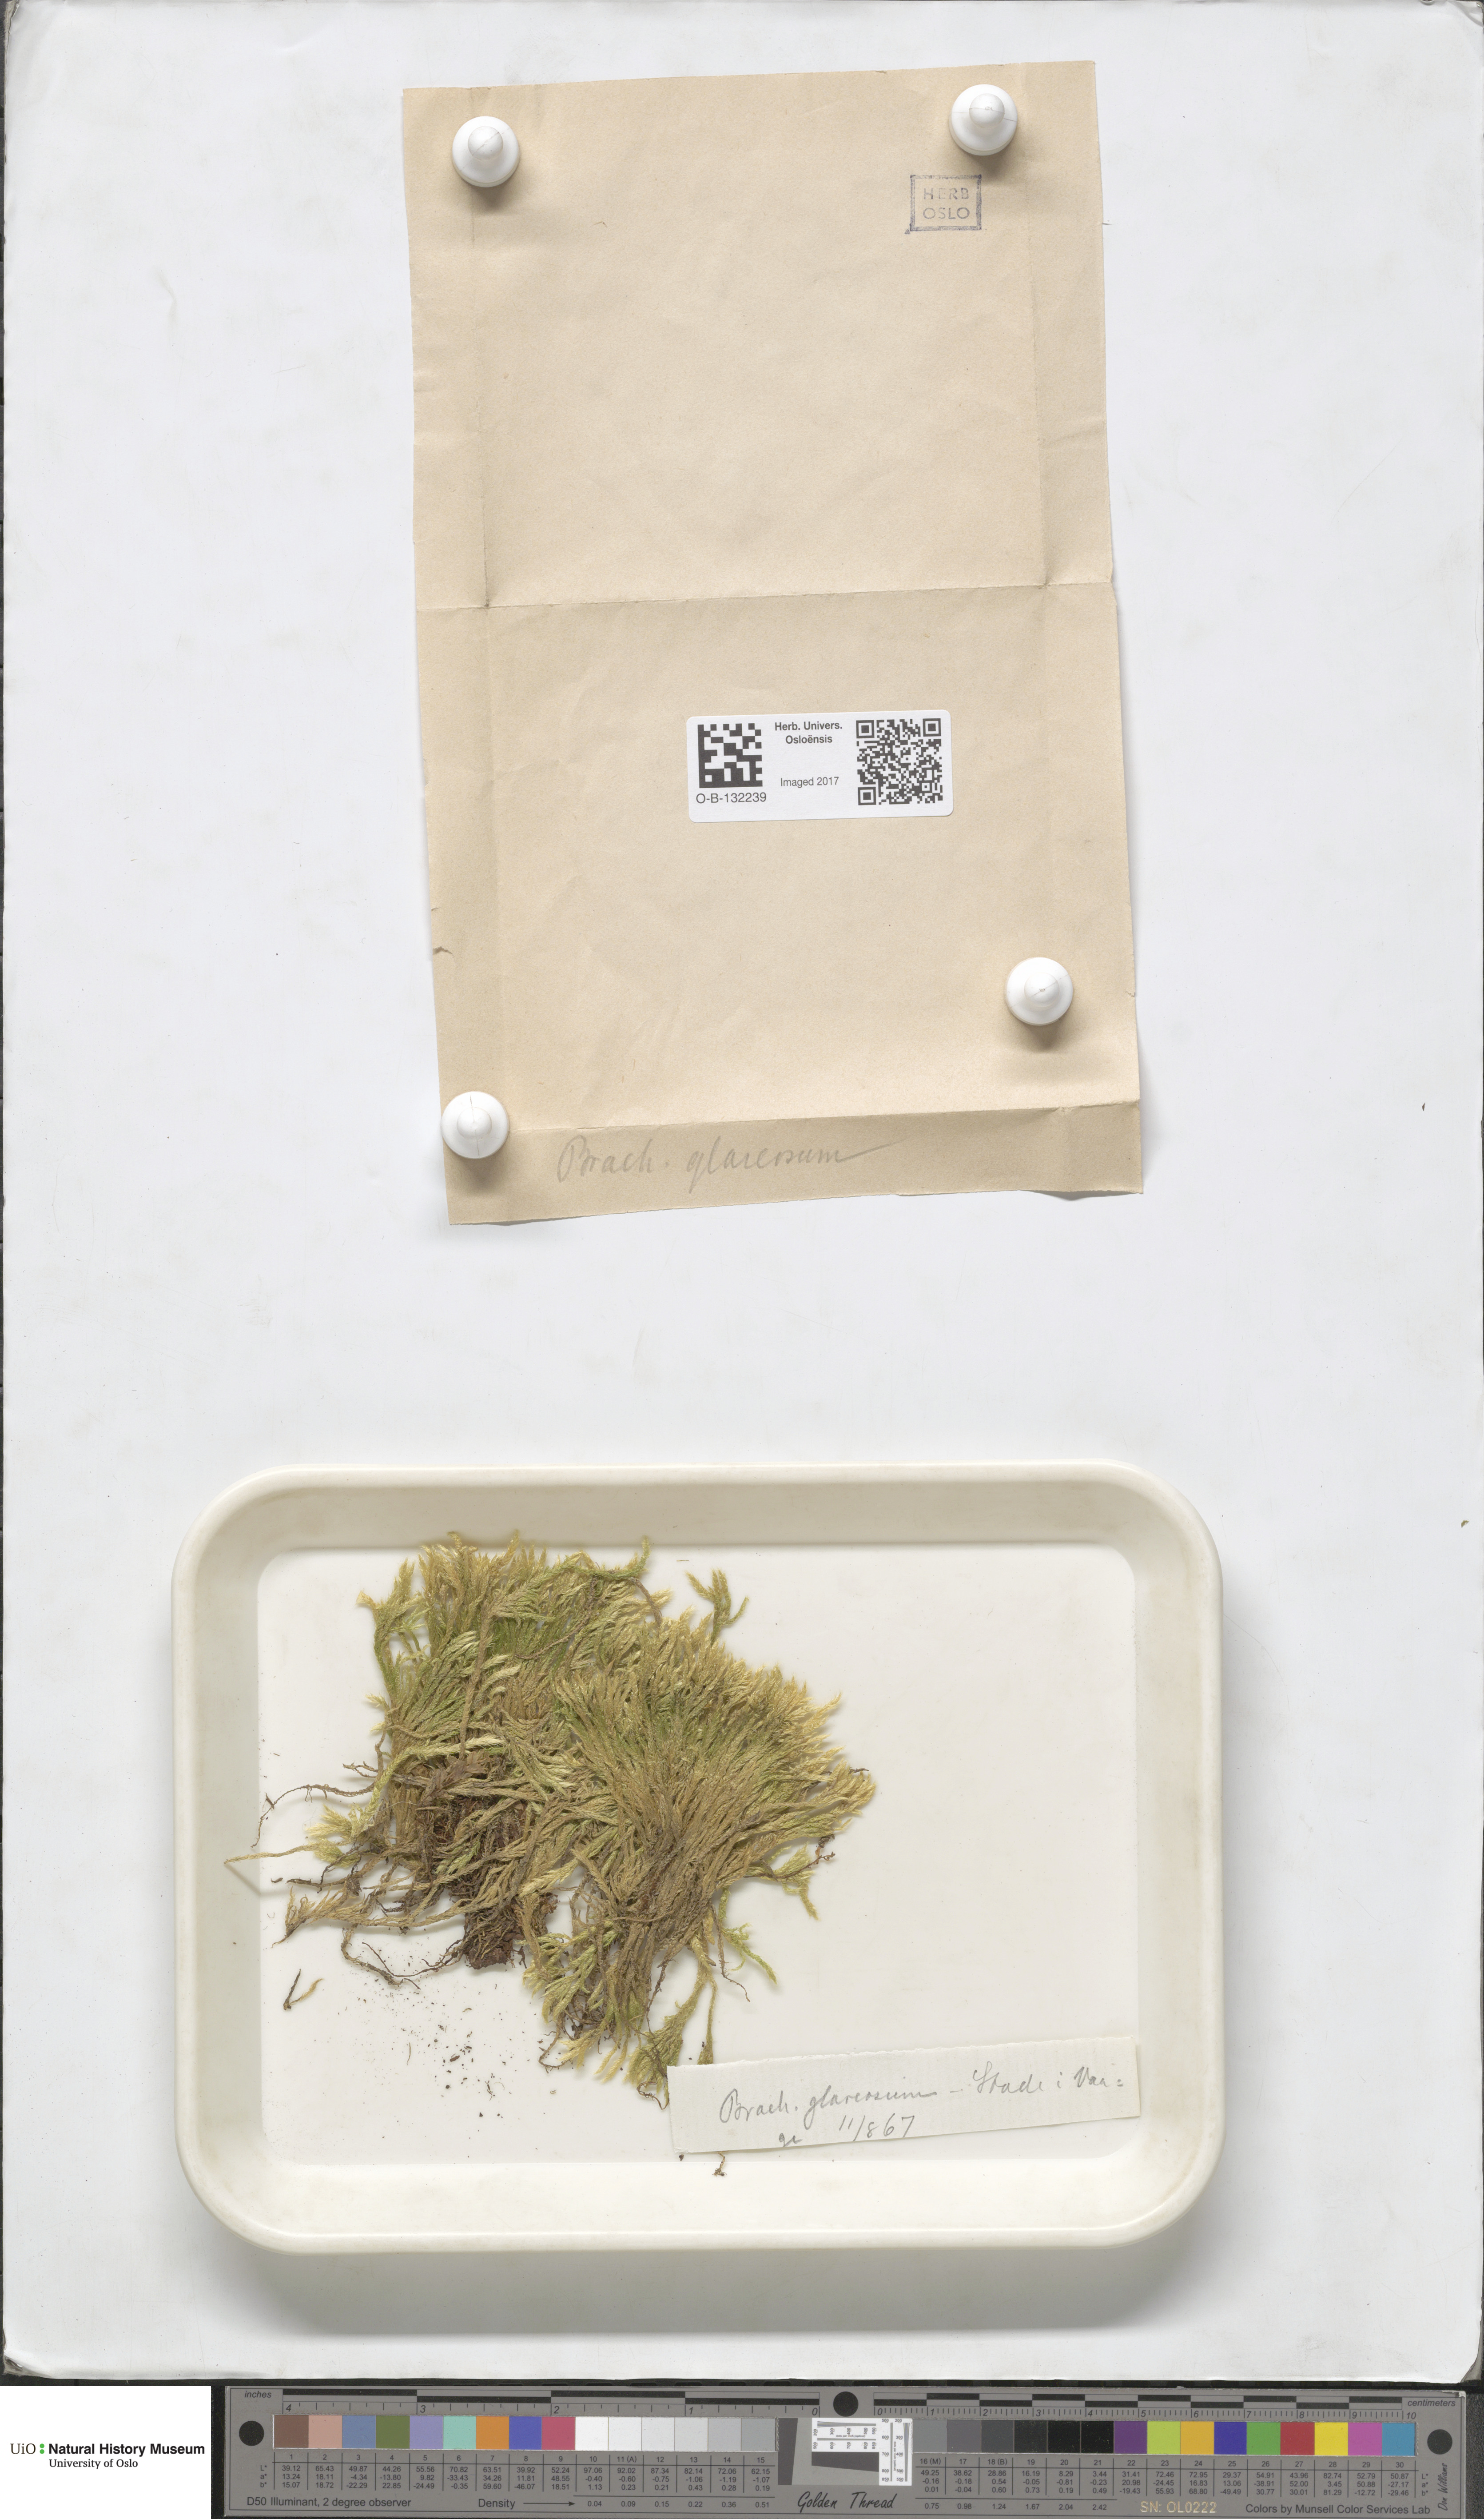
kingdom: Plantae
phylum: Bryophyta
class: Bryopsida
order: Hypnales
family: Brachytheciaceae
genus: Brachythecium
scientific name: Brachythecium glareosum
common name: Streaky feather-moss
